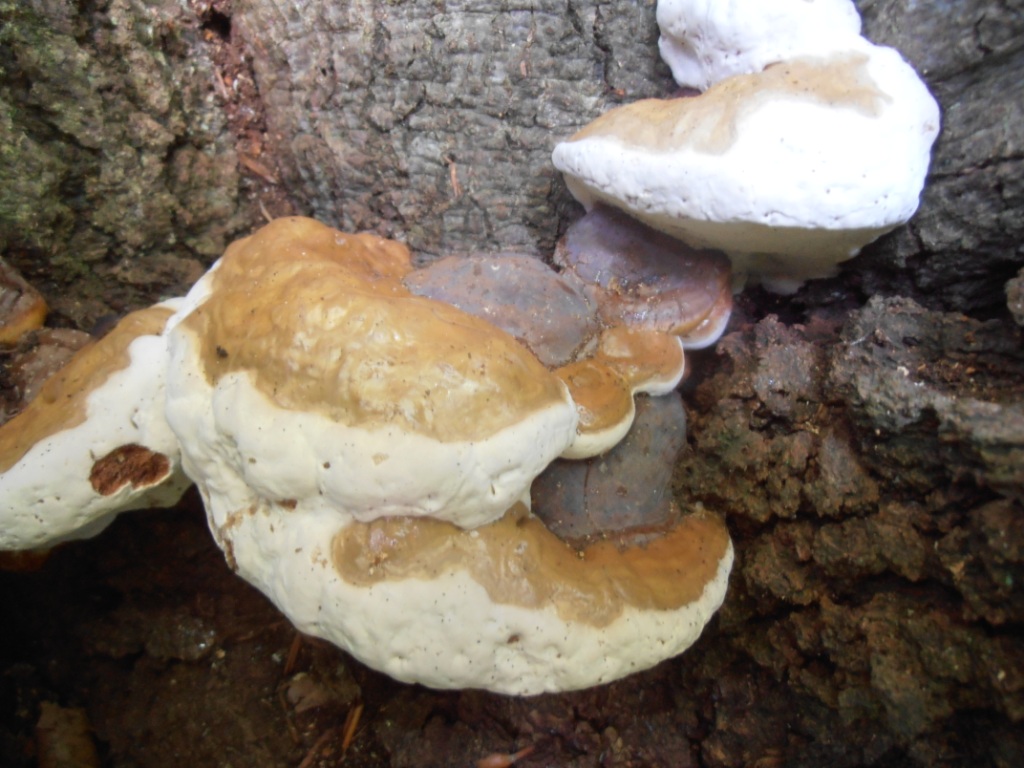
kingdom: Fungi
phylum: Basidiomycota
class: Agaricomycetes
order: Polyporales
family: Polyporaceae
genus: Ganoderma
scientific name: Ganoderma pfeifferi
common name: kobberrød lakporesvamp
